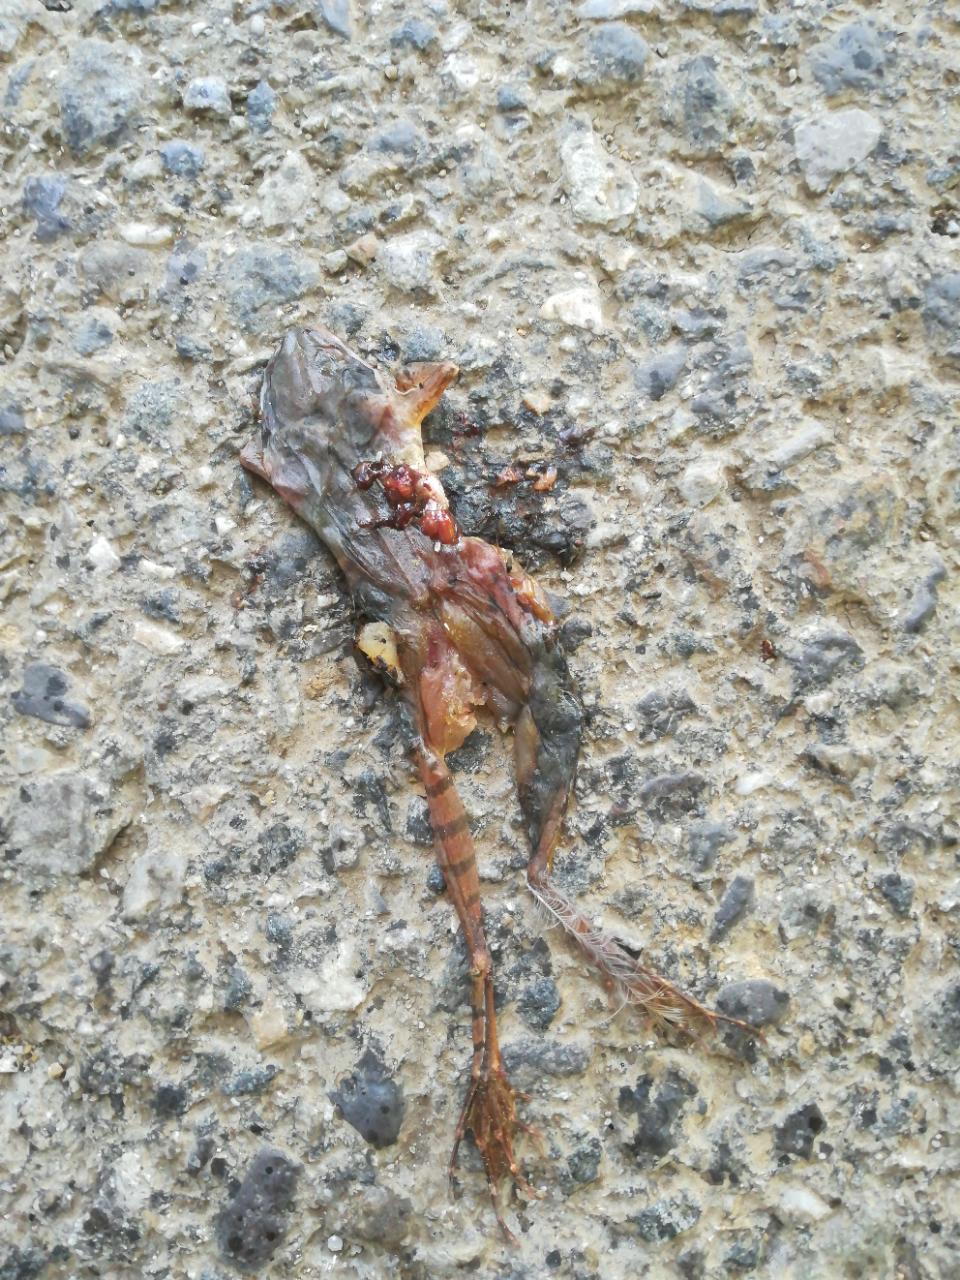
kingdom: Animalia
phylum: Chordata
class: Amphibia
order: Anura
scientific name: Anura
